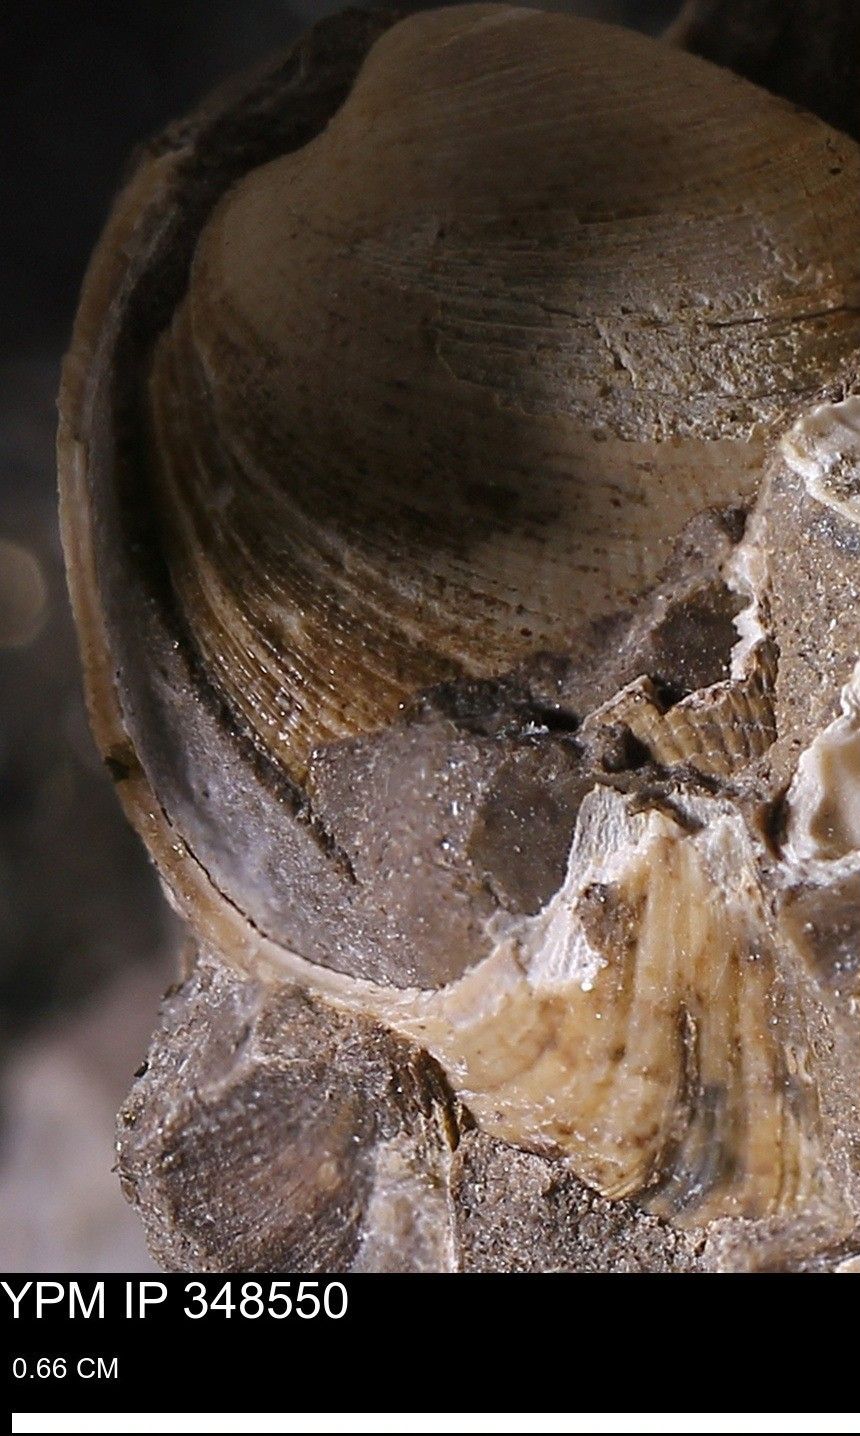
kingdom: Animalia
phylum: Mollusca
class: Bivalvia
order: Arcida
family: Limopsidae
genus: Limopsis
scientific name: Limopsis
